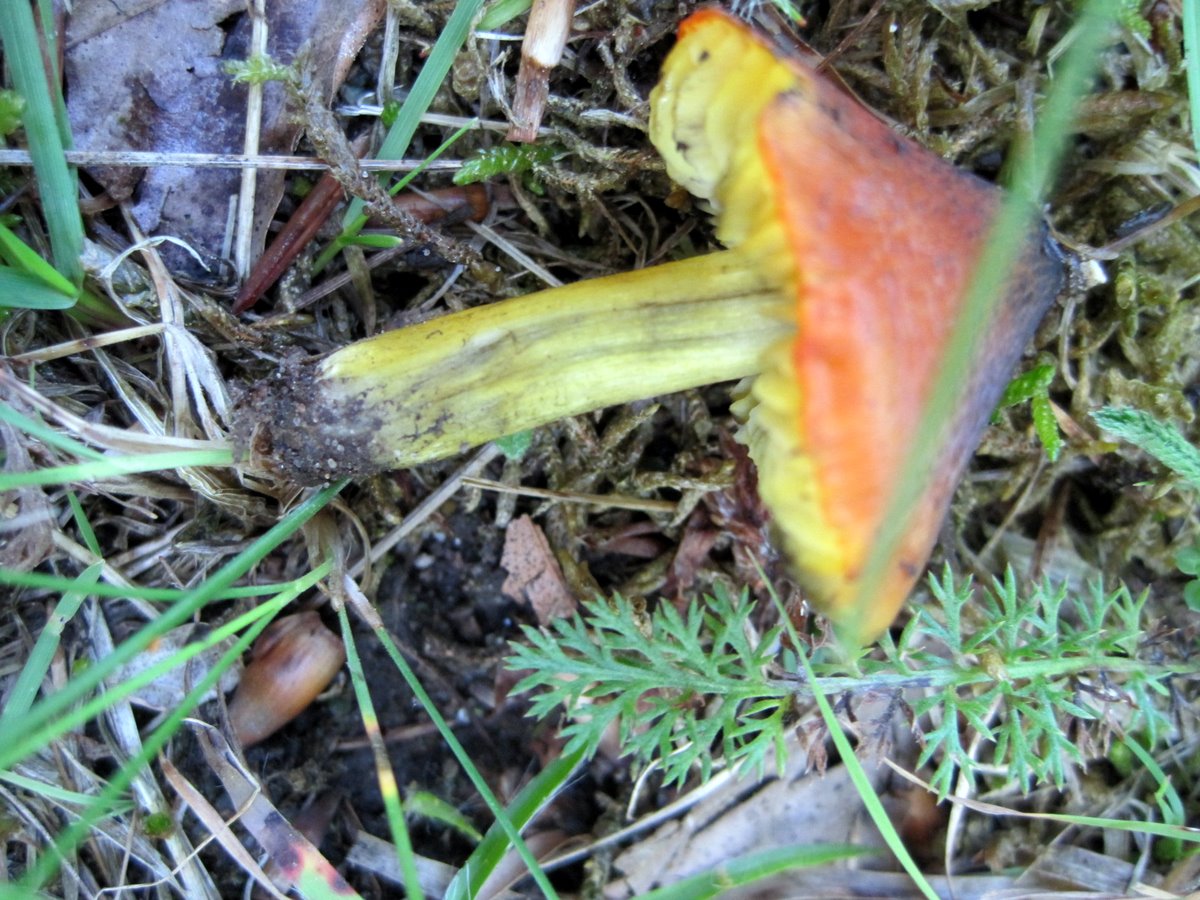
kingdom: Fungi
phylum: Basidiomycota
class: Agaricomycetes
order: Agaricales
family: Hygrophoraceae
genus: Hygrocybe
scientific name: Hygrocybe conica
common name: kegle-vokshat
